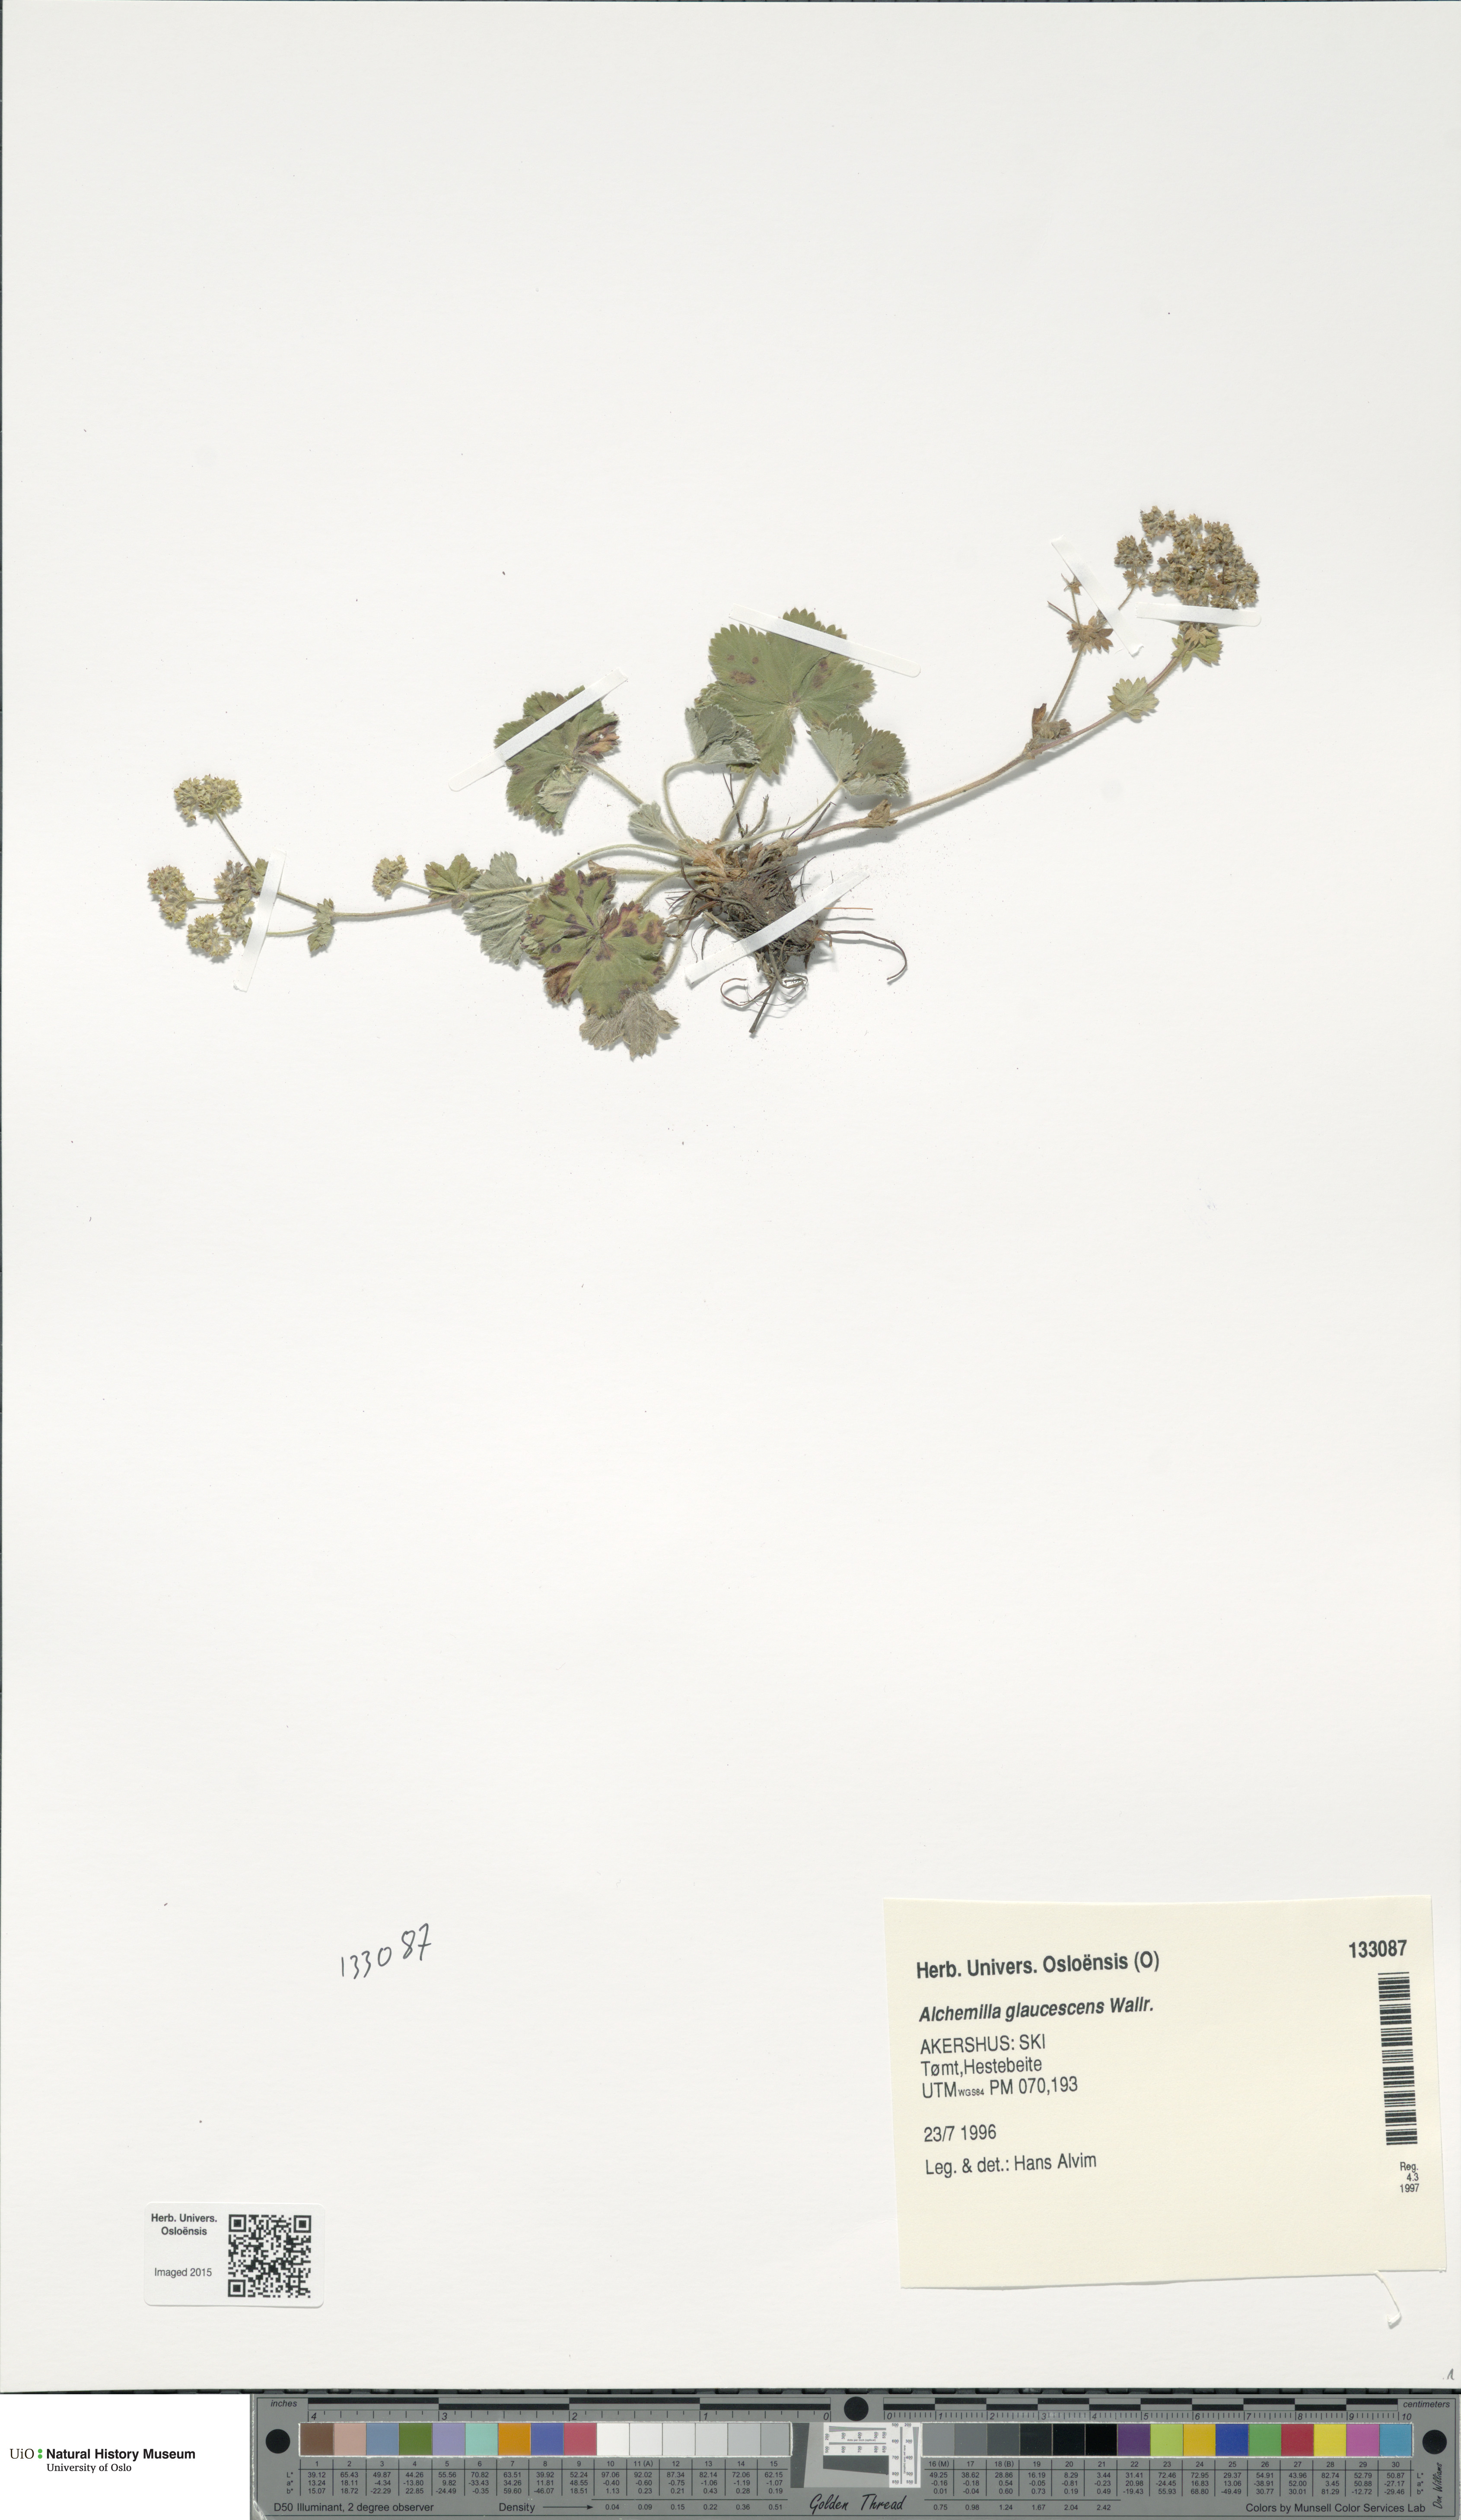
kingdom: Plantae
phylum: Tracheophyta
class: Magnoliopsida
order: Rosales
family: Rosaceae
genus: Alchemilla
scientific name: Alchemilla glaucescens
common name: Silky lady's mantle
